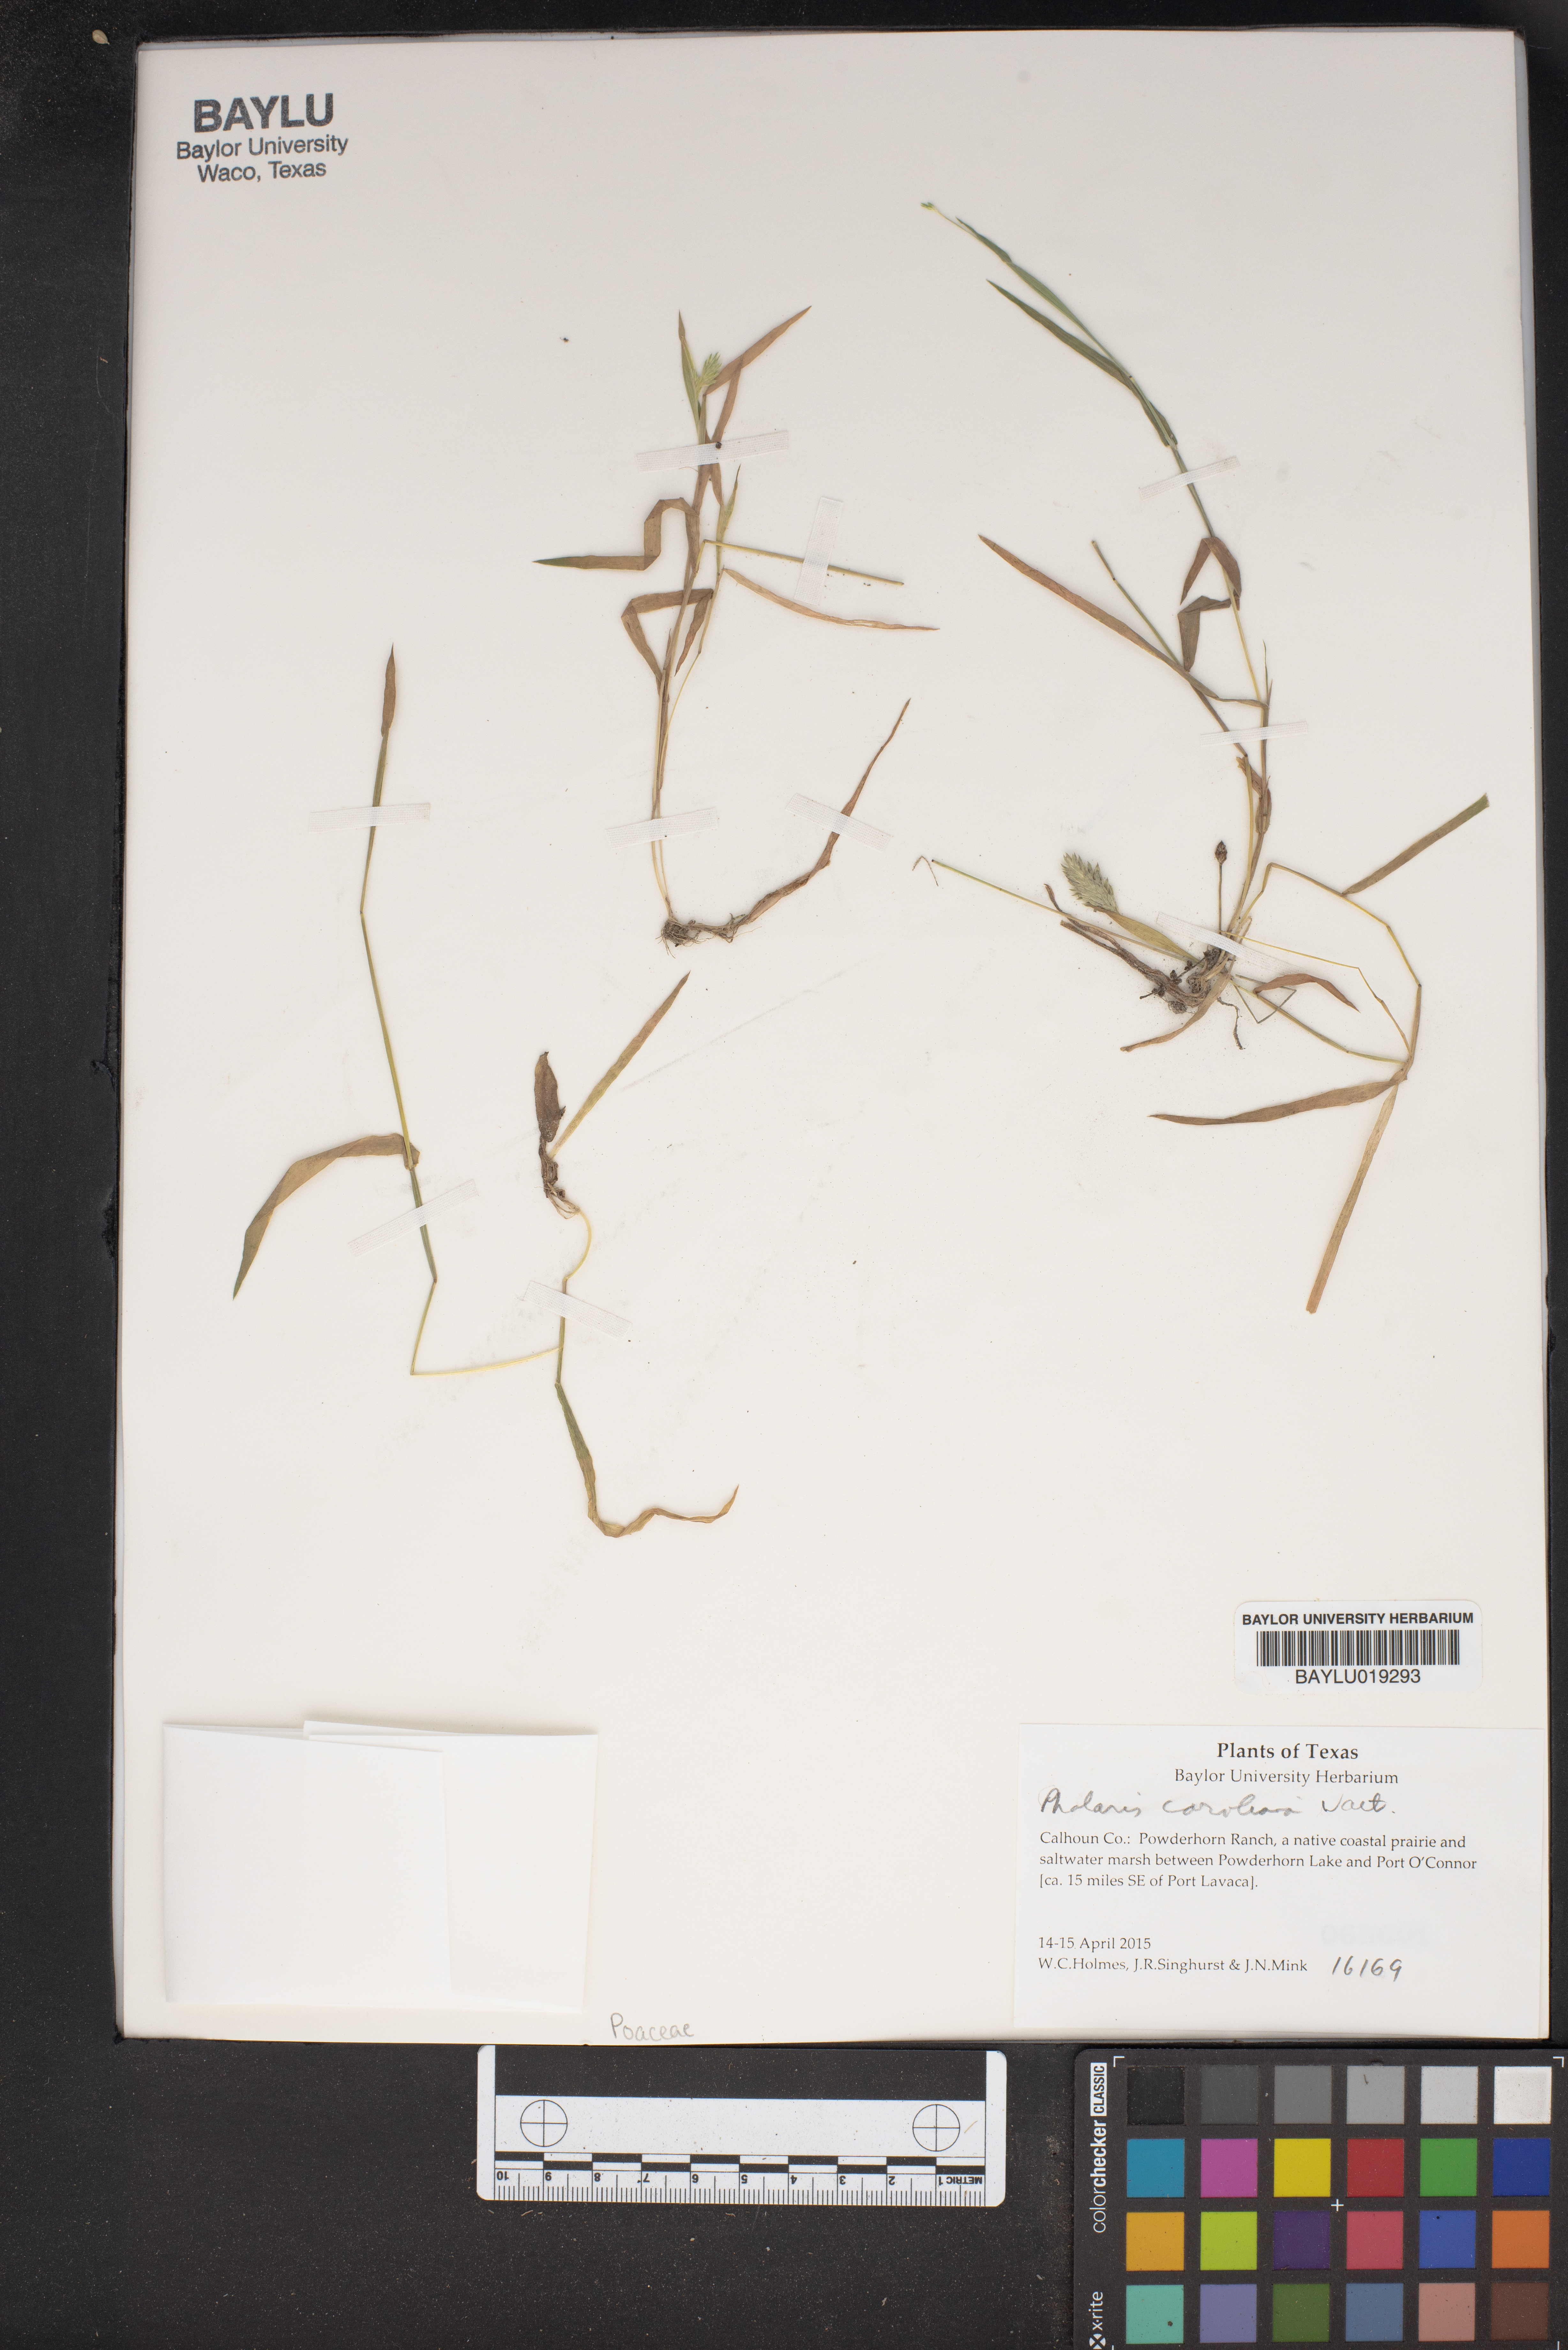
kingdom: Plantae
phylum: Tracheophyta
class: Liliopsida
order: Poales
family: Poaceae
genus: Phalaris
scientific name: Phalaris caroliniana
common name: May grass
